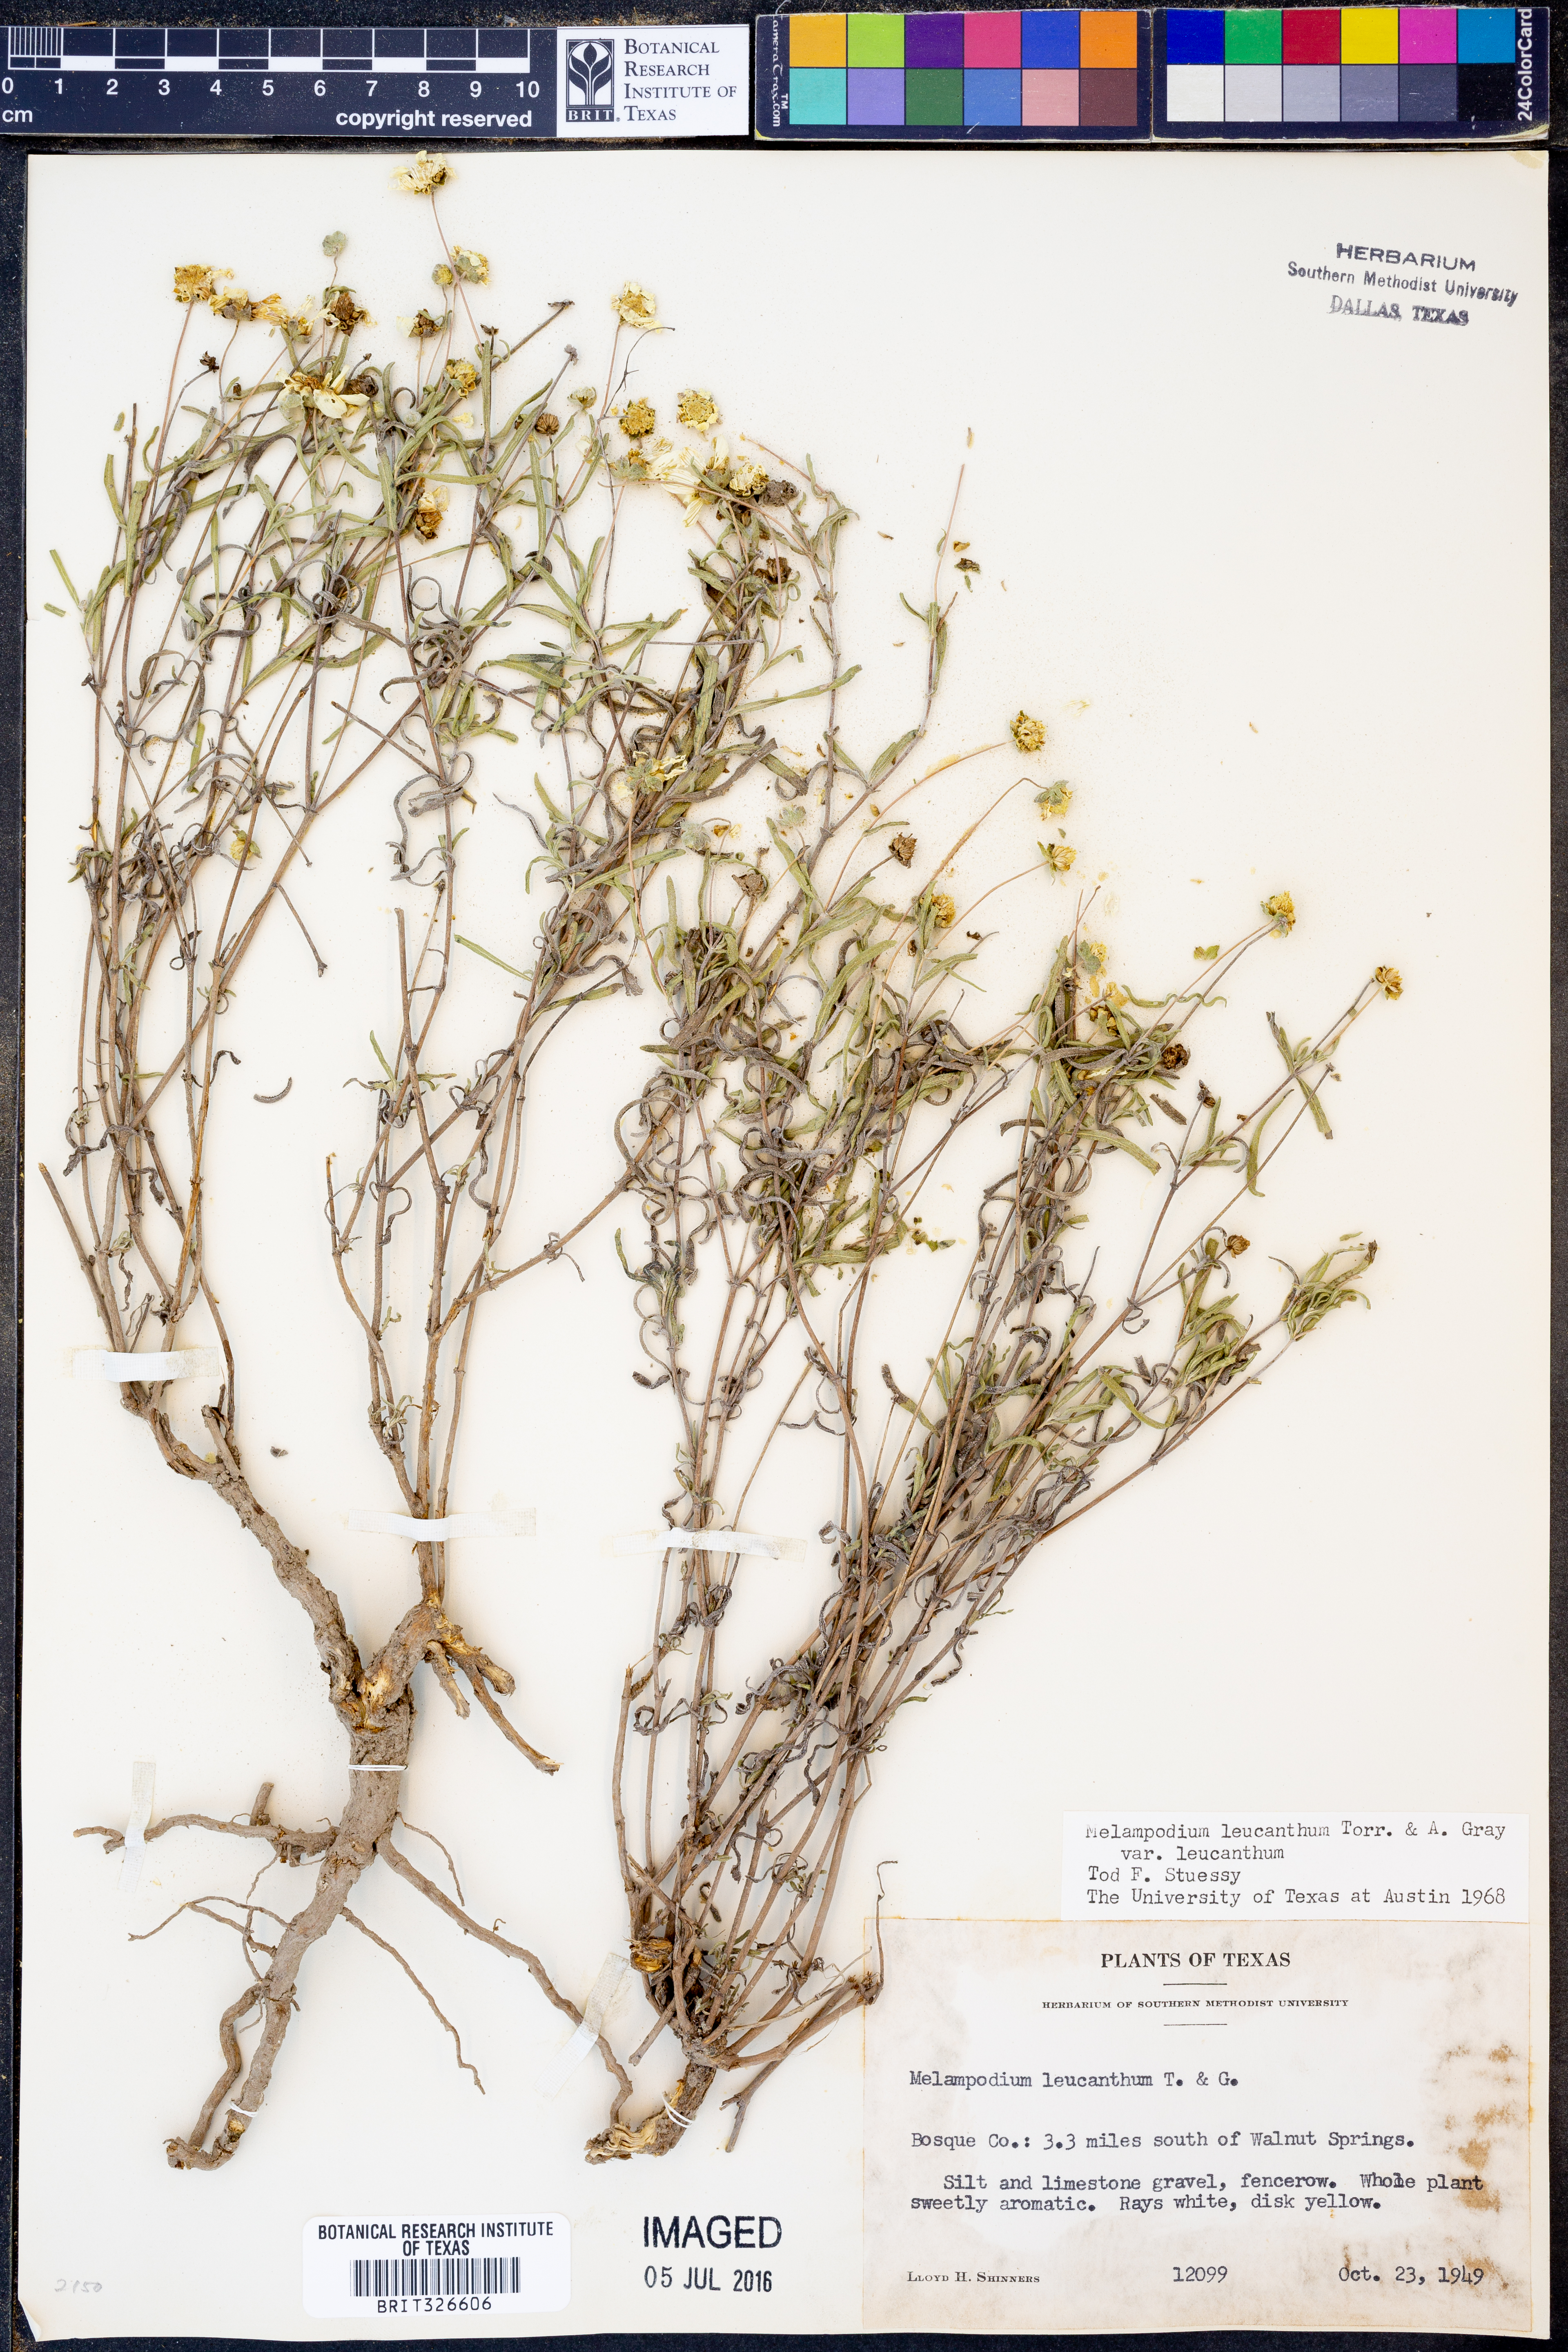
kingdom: Plantae
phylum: Tracheophyta
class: Magnoliopsida
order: Asterales
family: Asteraceae
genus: Melampodium
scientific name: Melampodium leucanthum
